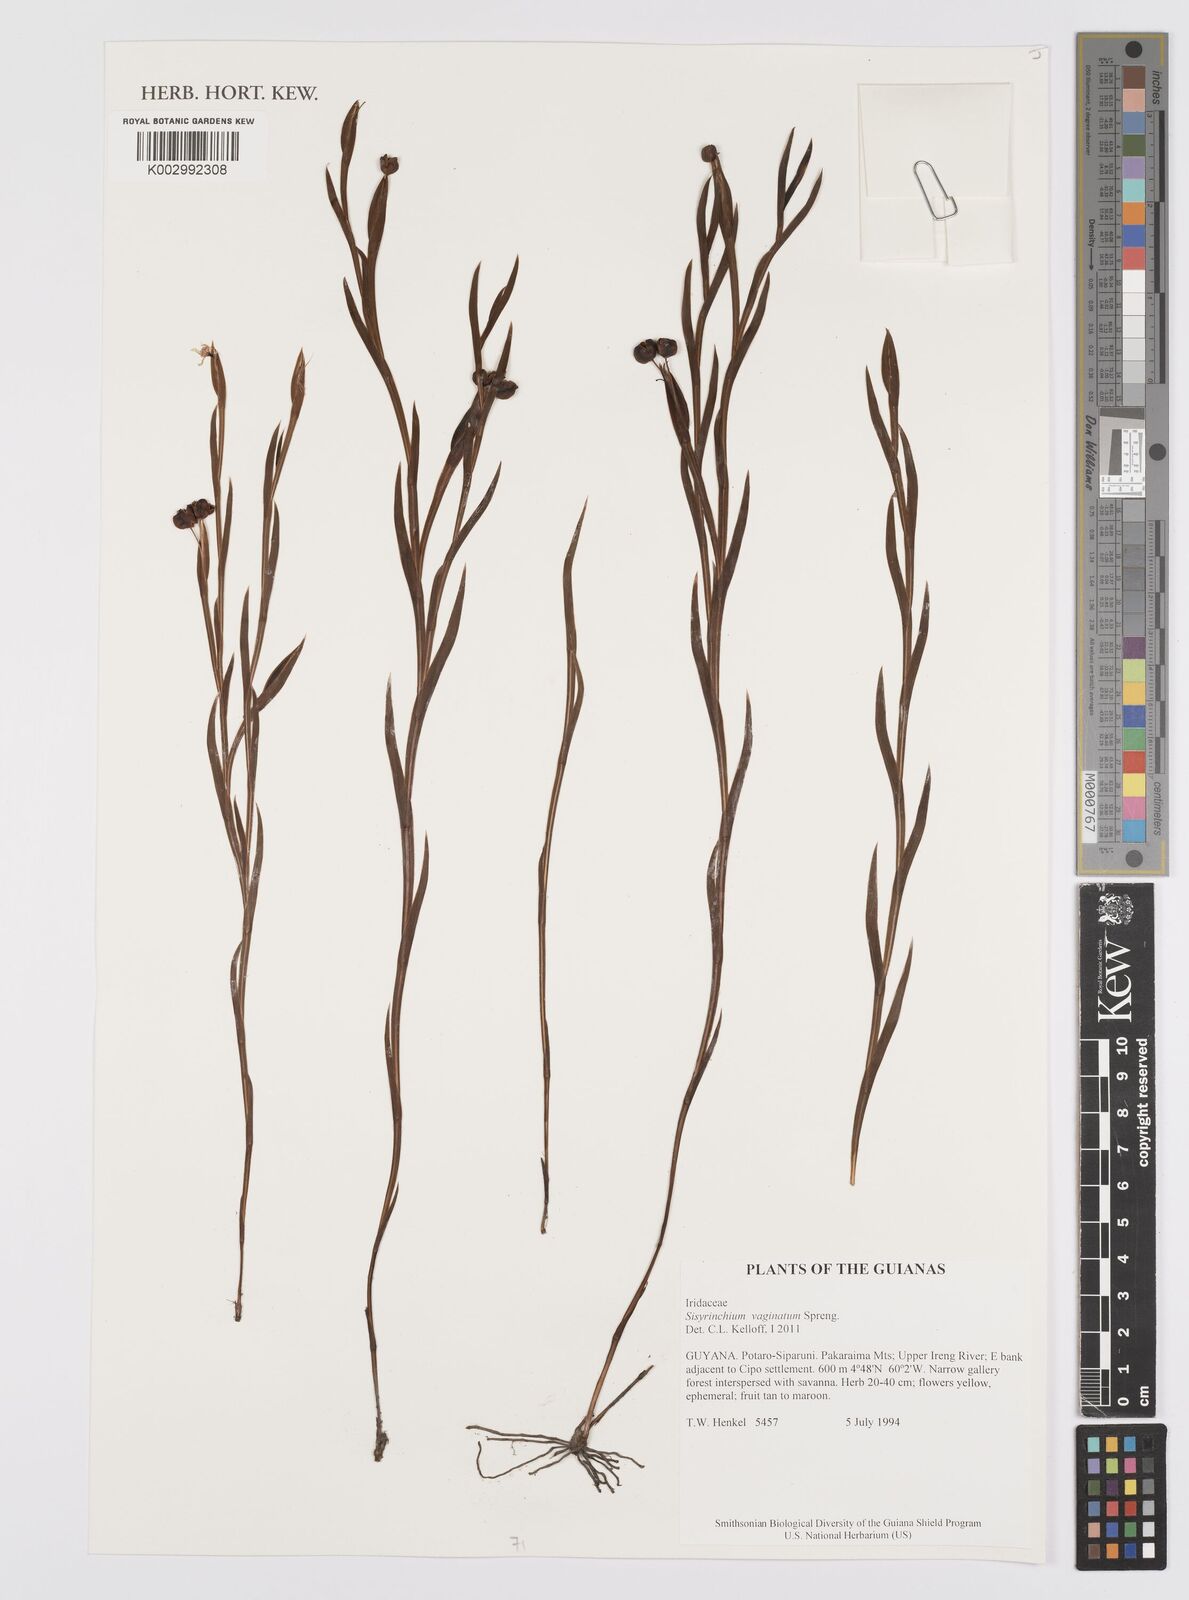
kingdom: Plantae
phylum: Tracheophyta
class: Liliopsida
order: Asparagales
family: Iridaceae
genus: Sisyrinchium
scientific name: Sisyrinchium vaginatum
